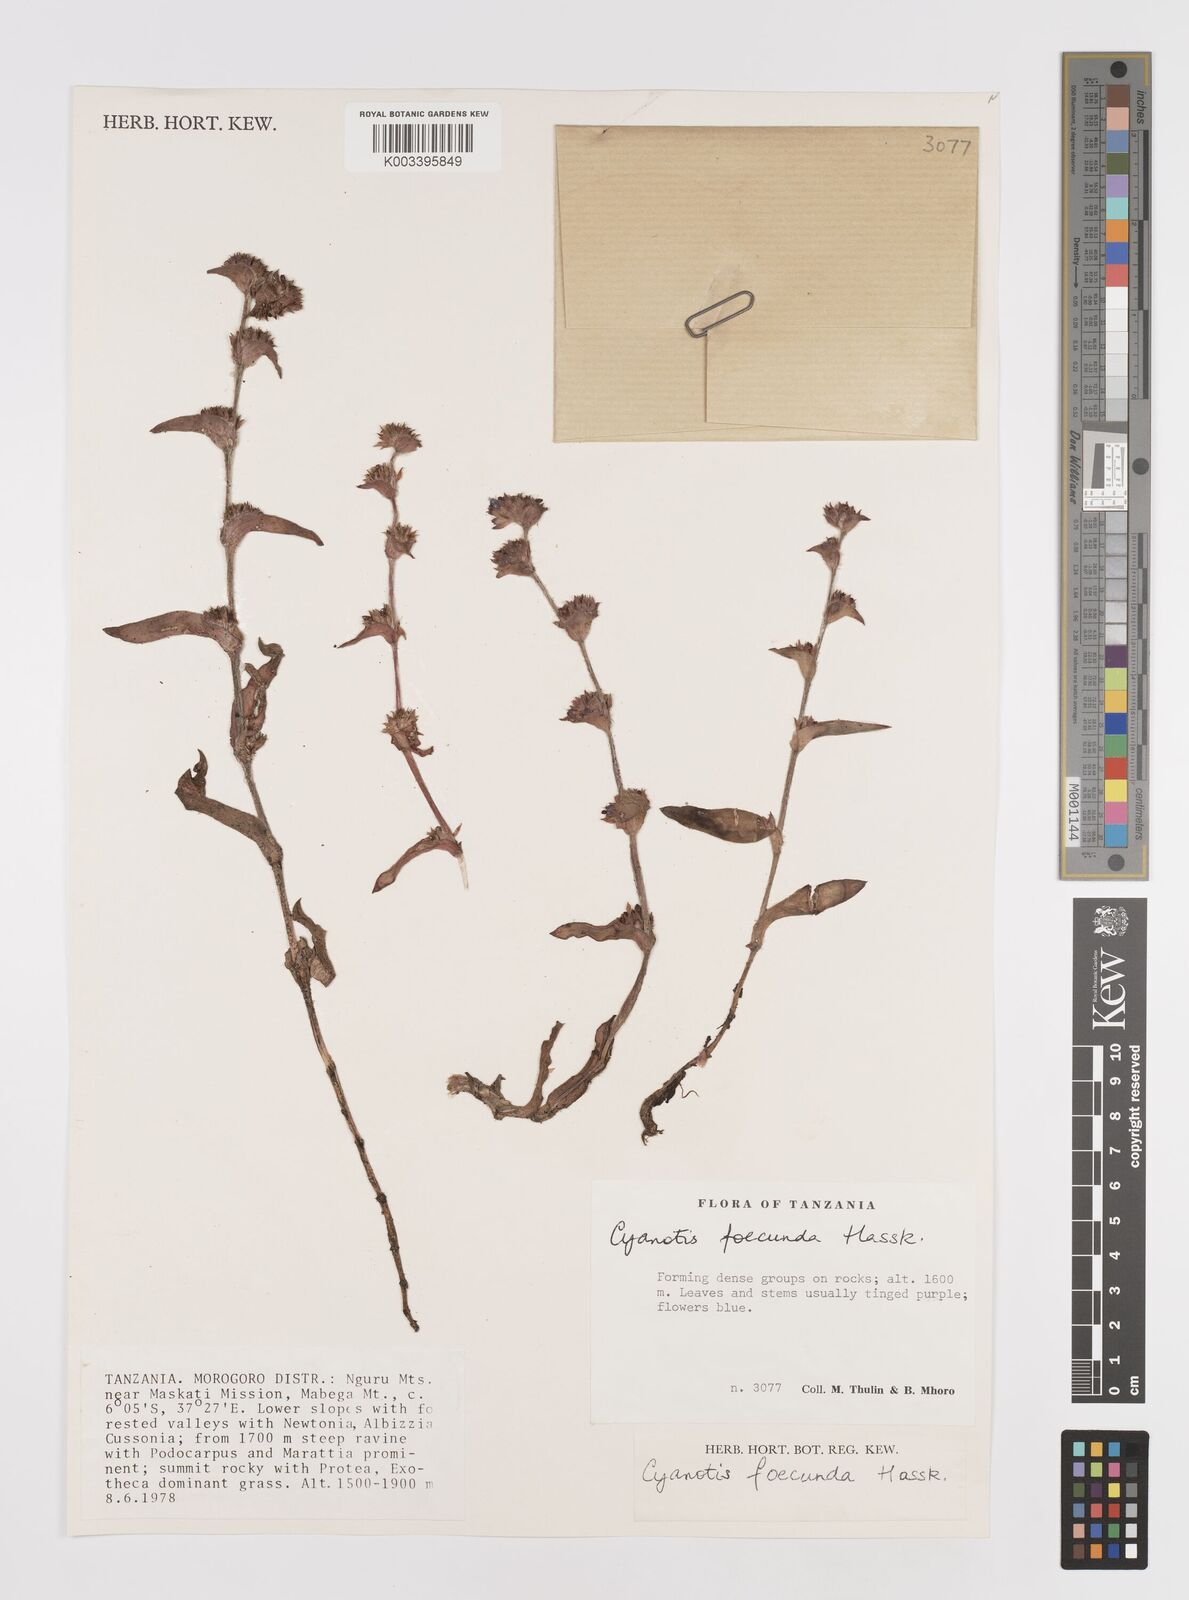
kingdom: Plantae
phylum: Tracheophyta
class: Liliopsida
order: Commelinales
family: Commelinaceae
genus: Cyanotis
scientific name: Cyanotis foecunda
